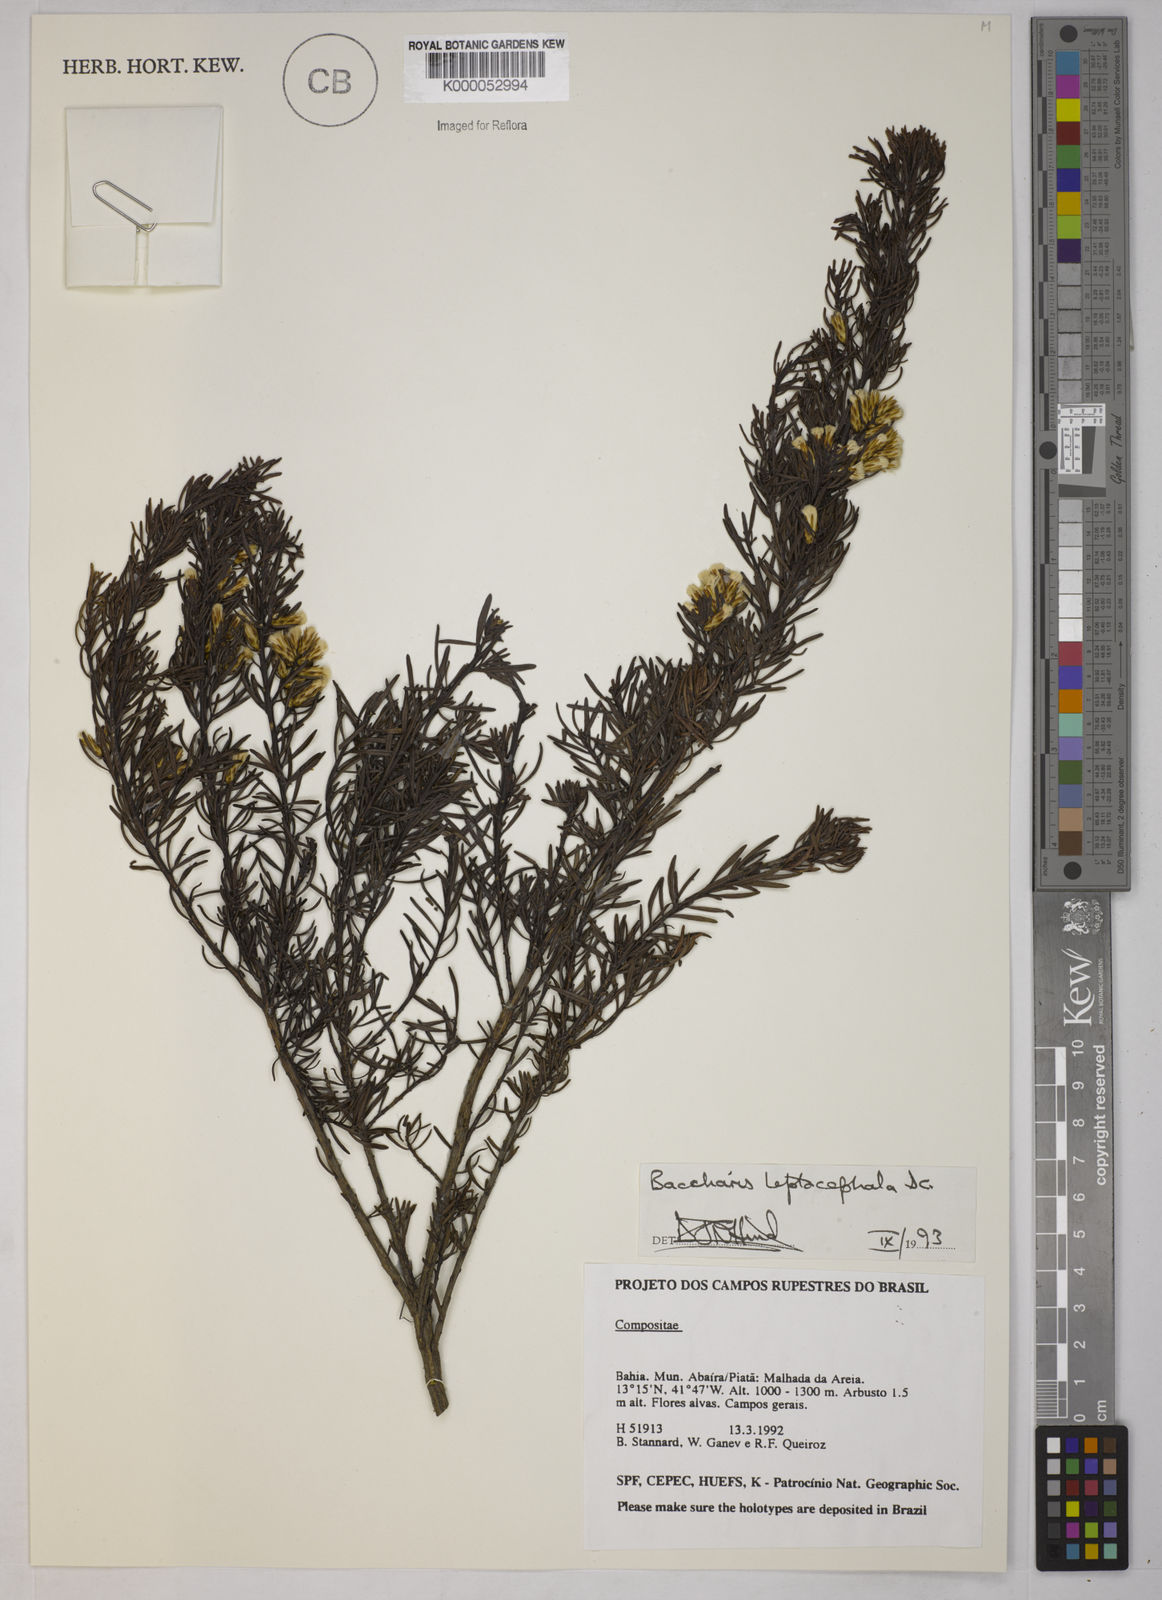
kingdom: Plantae
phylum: Tracheophyta
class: Magnoliopsida
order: Asterales
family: Asteraceae
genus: Baccharis
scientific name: Baccharis leptocephala
